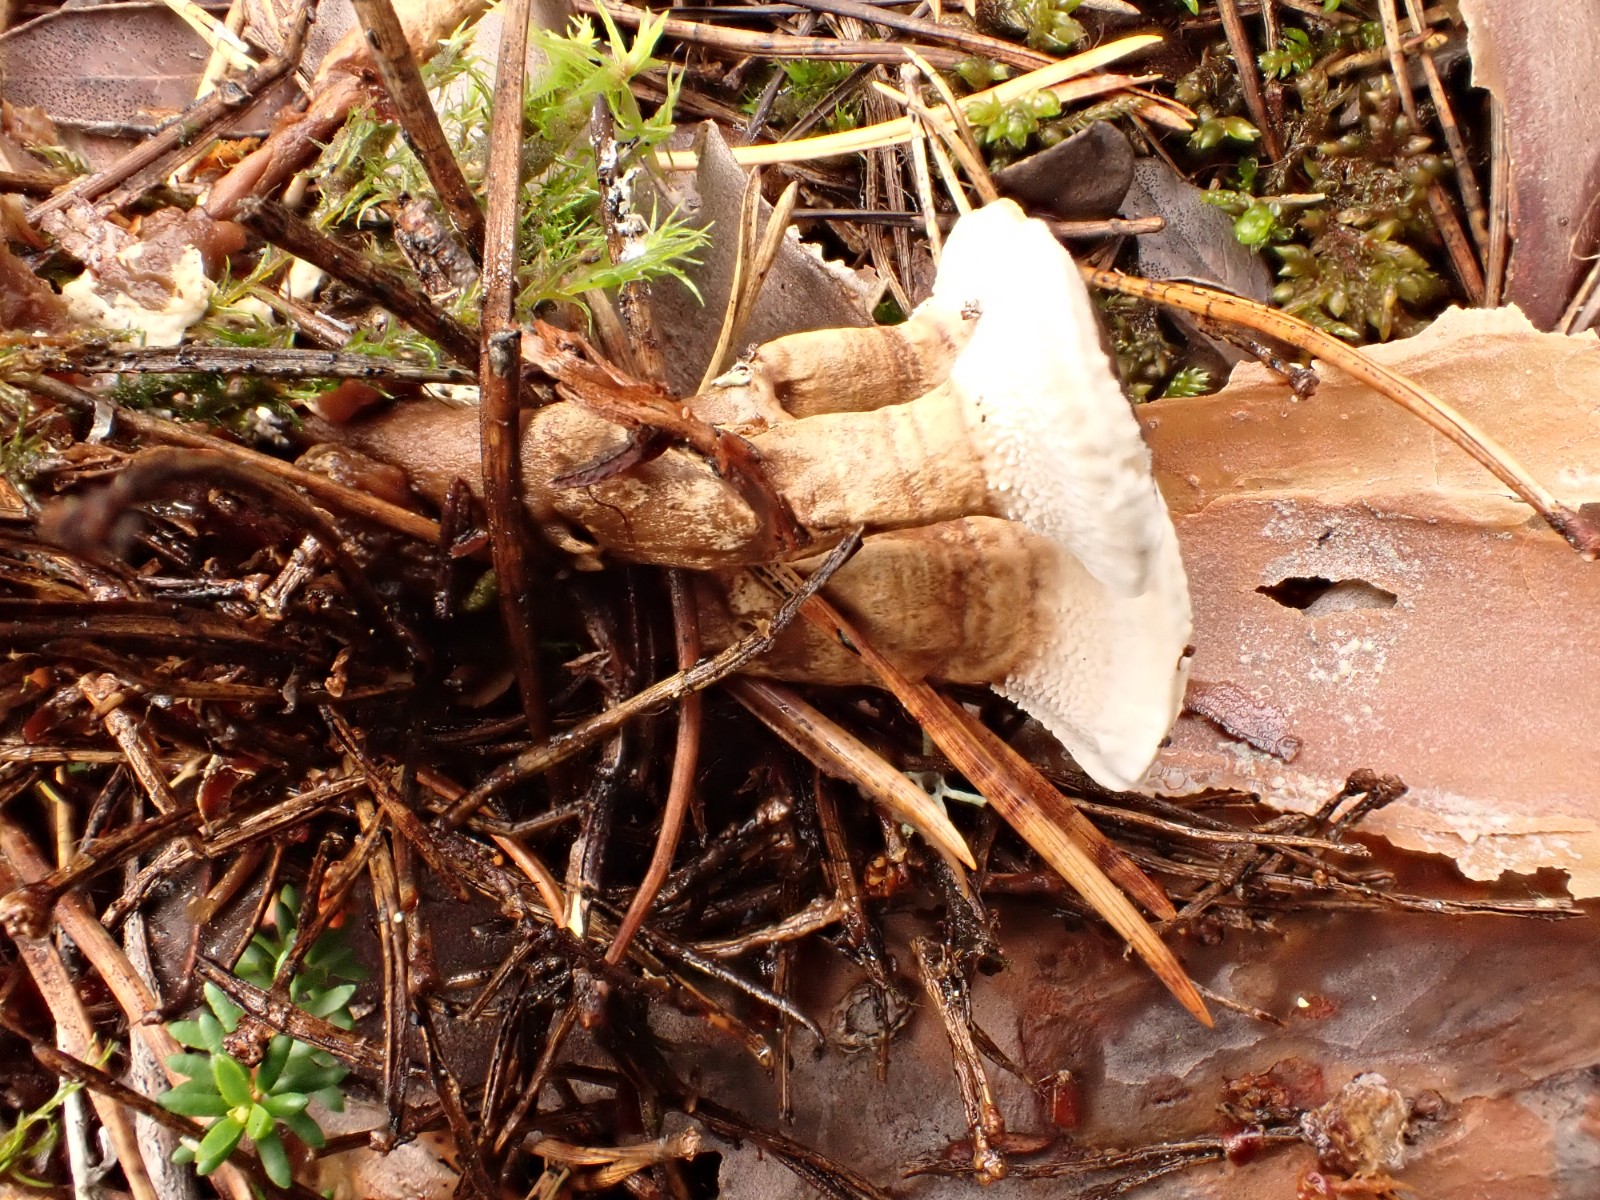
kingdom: Fungi
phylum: Basidiomycota
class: Agaricomycetes
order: Thelephorales
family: Thelephoraceae
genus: Phellodon
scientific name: Phellodon tomentosus
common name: tragtformet duftpigsvamp
